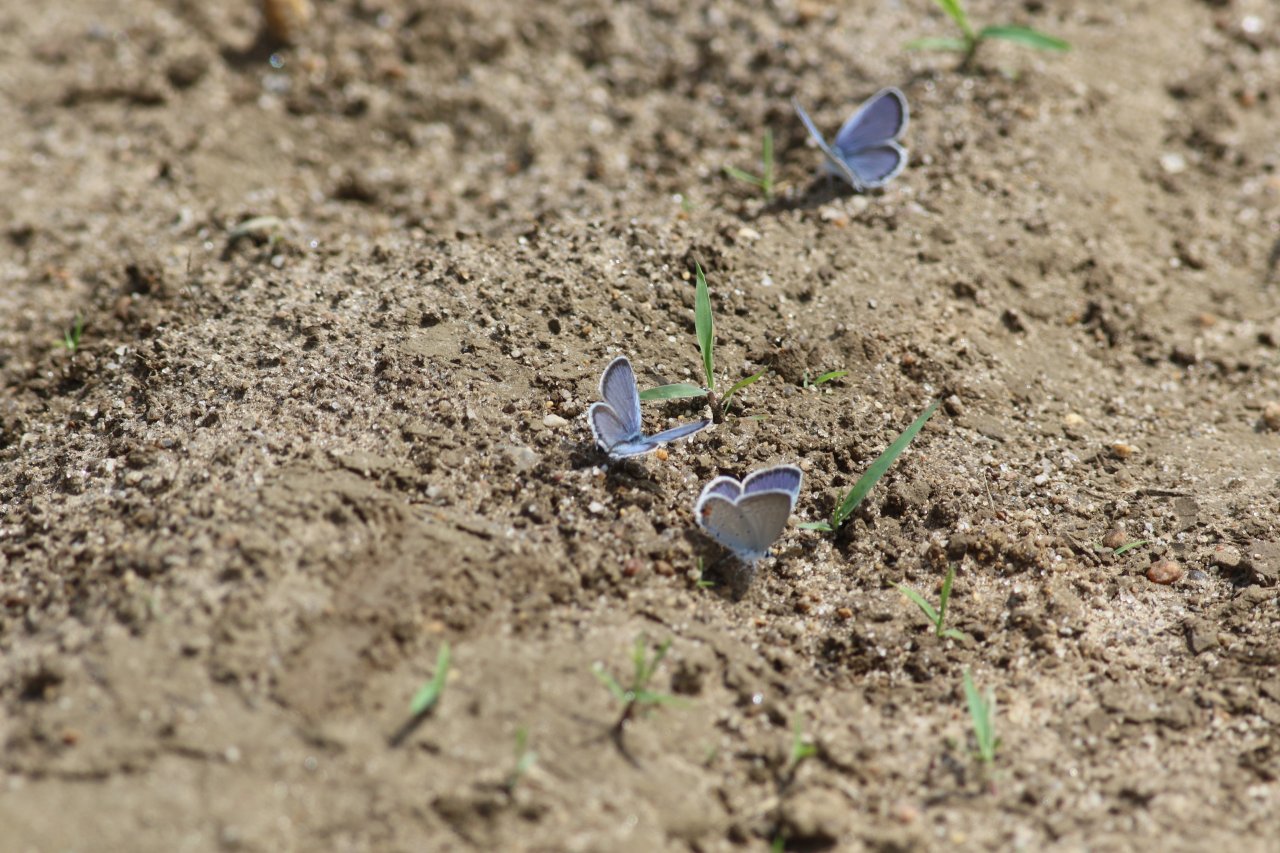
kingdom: Animalia
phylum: Arthropoda
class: Insecta
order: Lepidoptera
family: Lycaenidae
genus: Elkalyce
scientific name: Elkalyce comyntas
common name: Eastern Tailed-Blue
